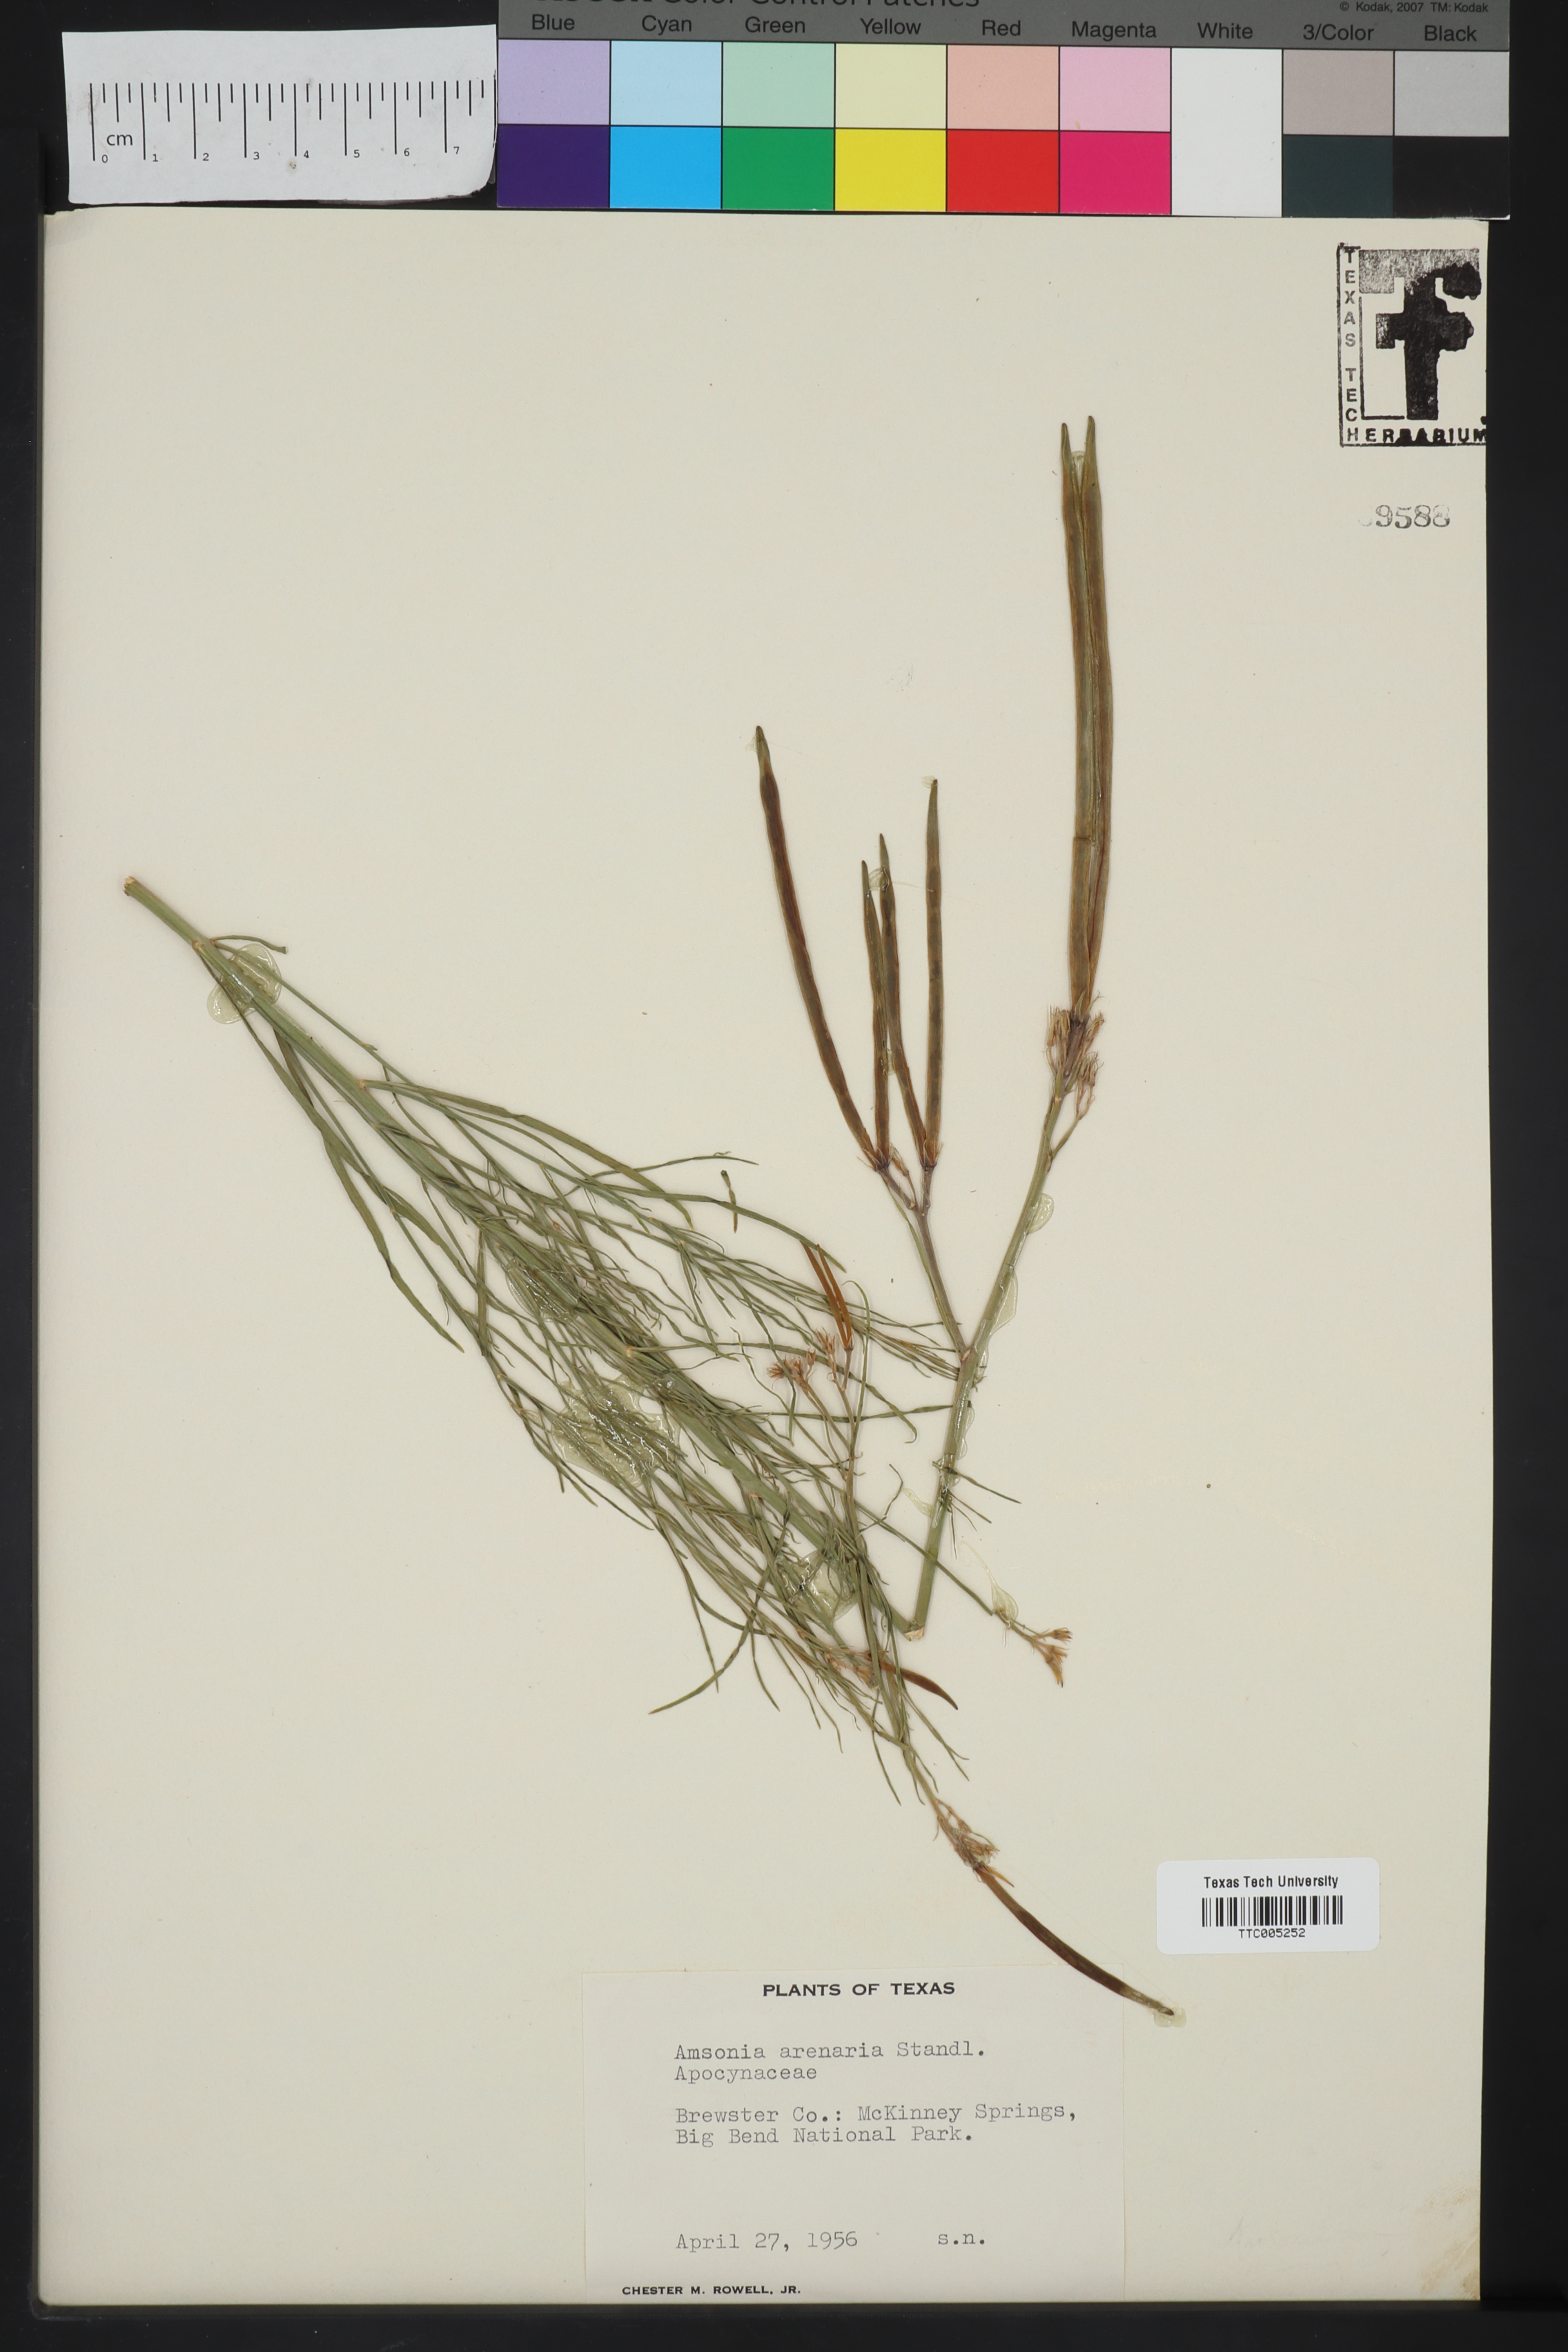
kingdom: Plantae
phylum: Tracheophyta
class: Magnoliopsida
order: Gentianales
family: Apocynaceae
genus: Amsonia
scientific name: Amsonia tomentosa
